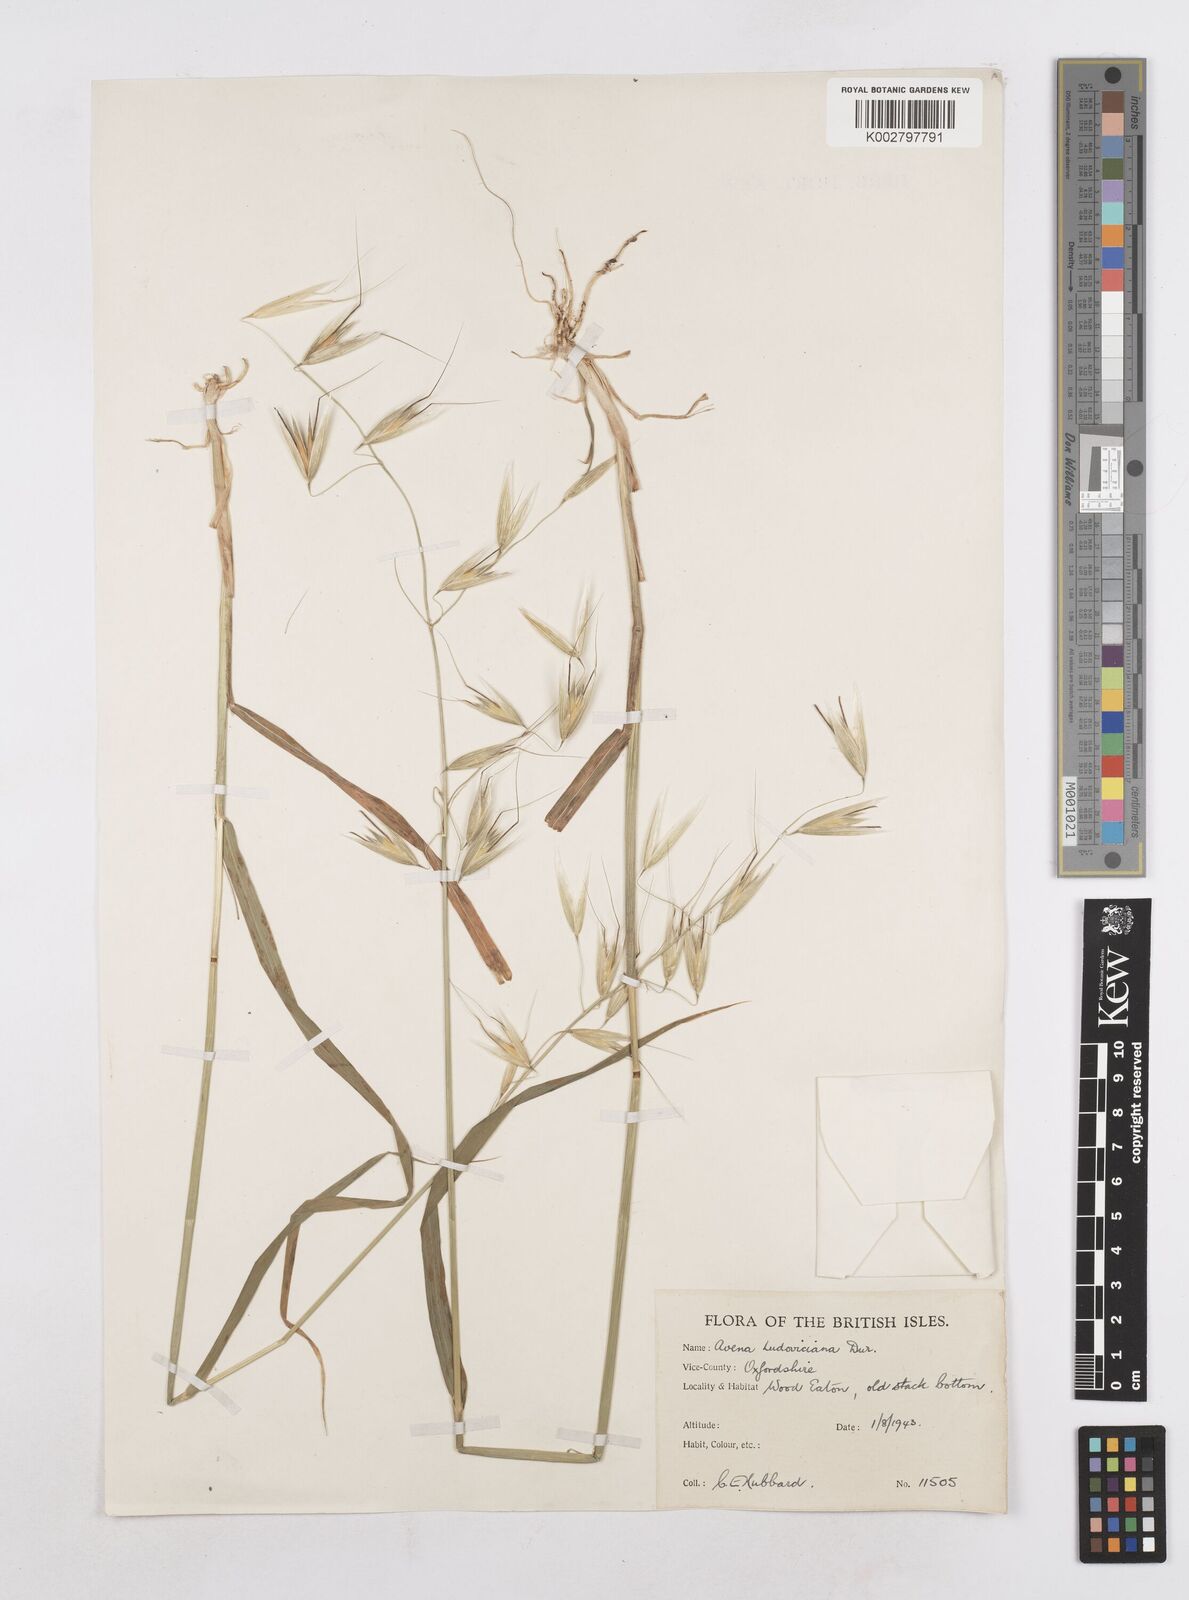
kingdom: Plantae
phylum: Tracheophyta
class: Liliopsida
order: Poales
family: Poaceae
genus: Avena
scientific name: Avena sterilis
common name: Animated oat
